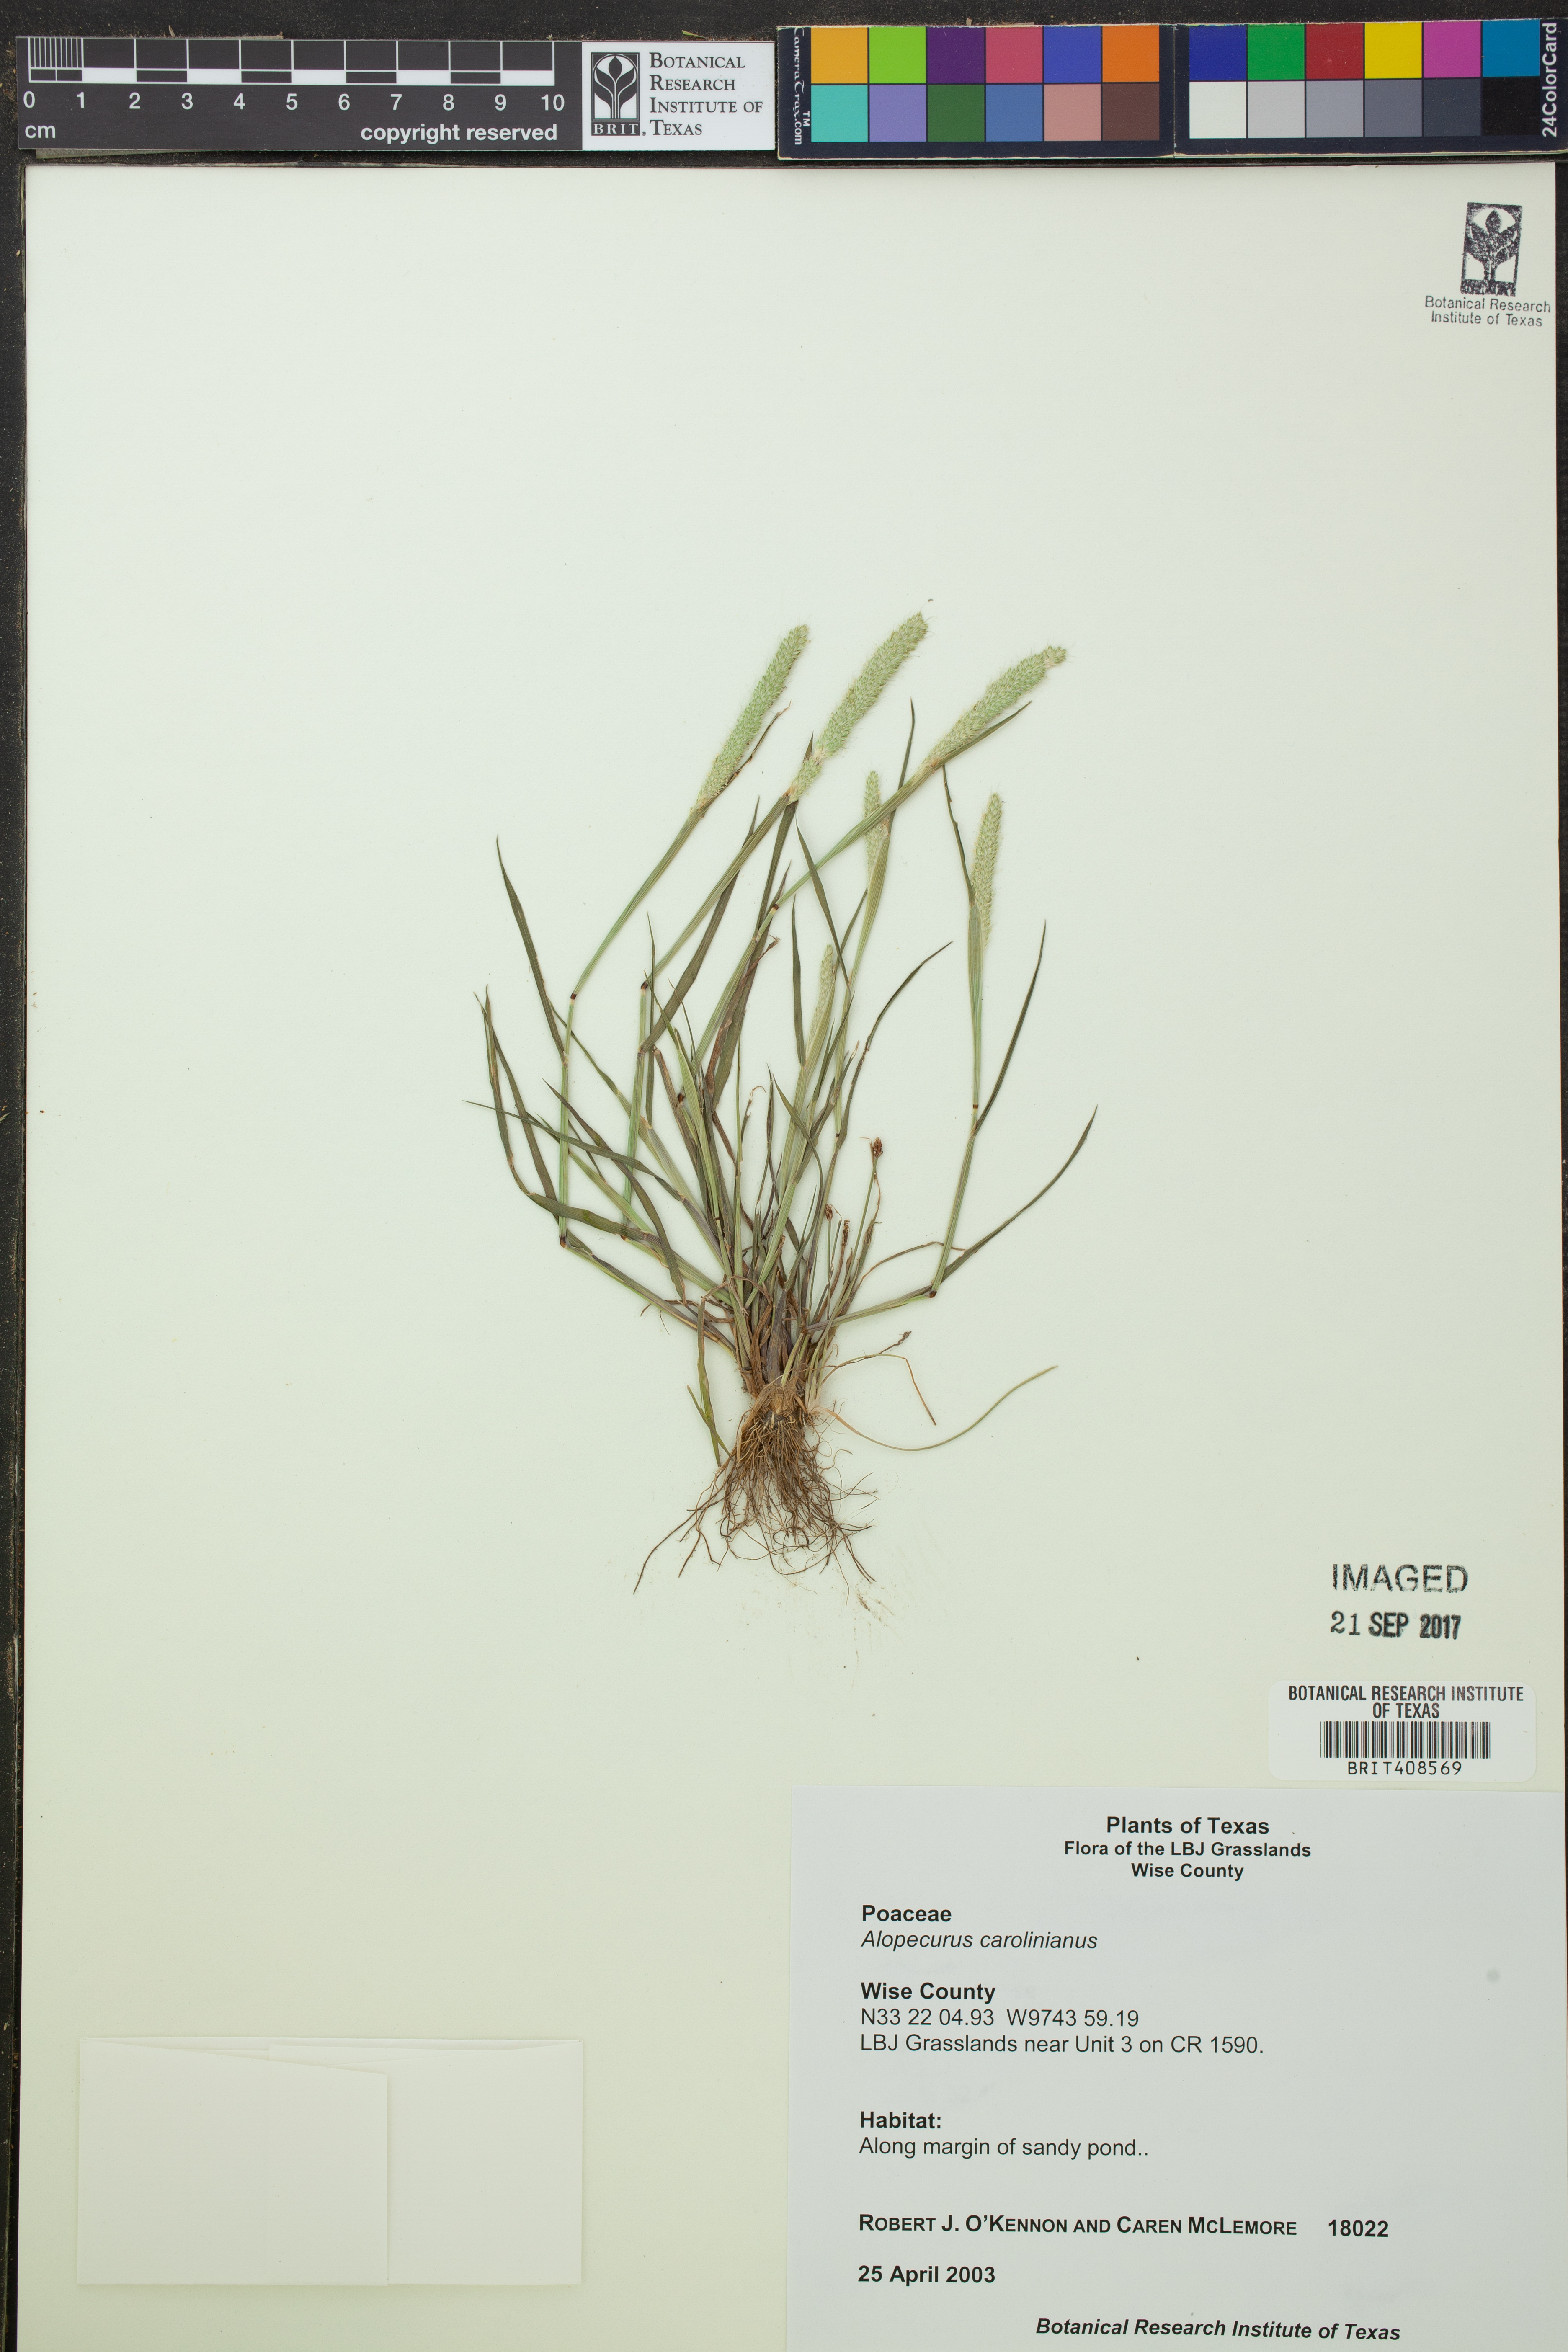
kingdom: Plantae
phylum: Tracheophyta
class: Liliopsida
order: Poales
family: Poaceae
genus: Alopecurus
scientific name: Alopecurus carolinianus
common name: Tufted foxtail
